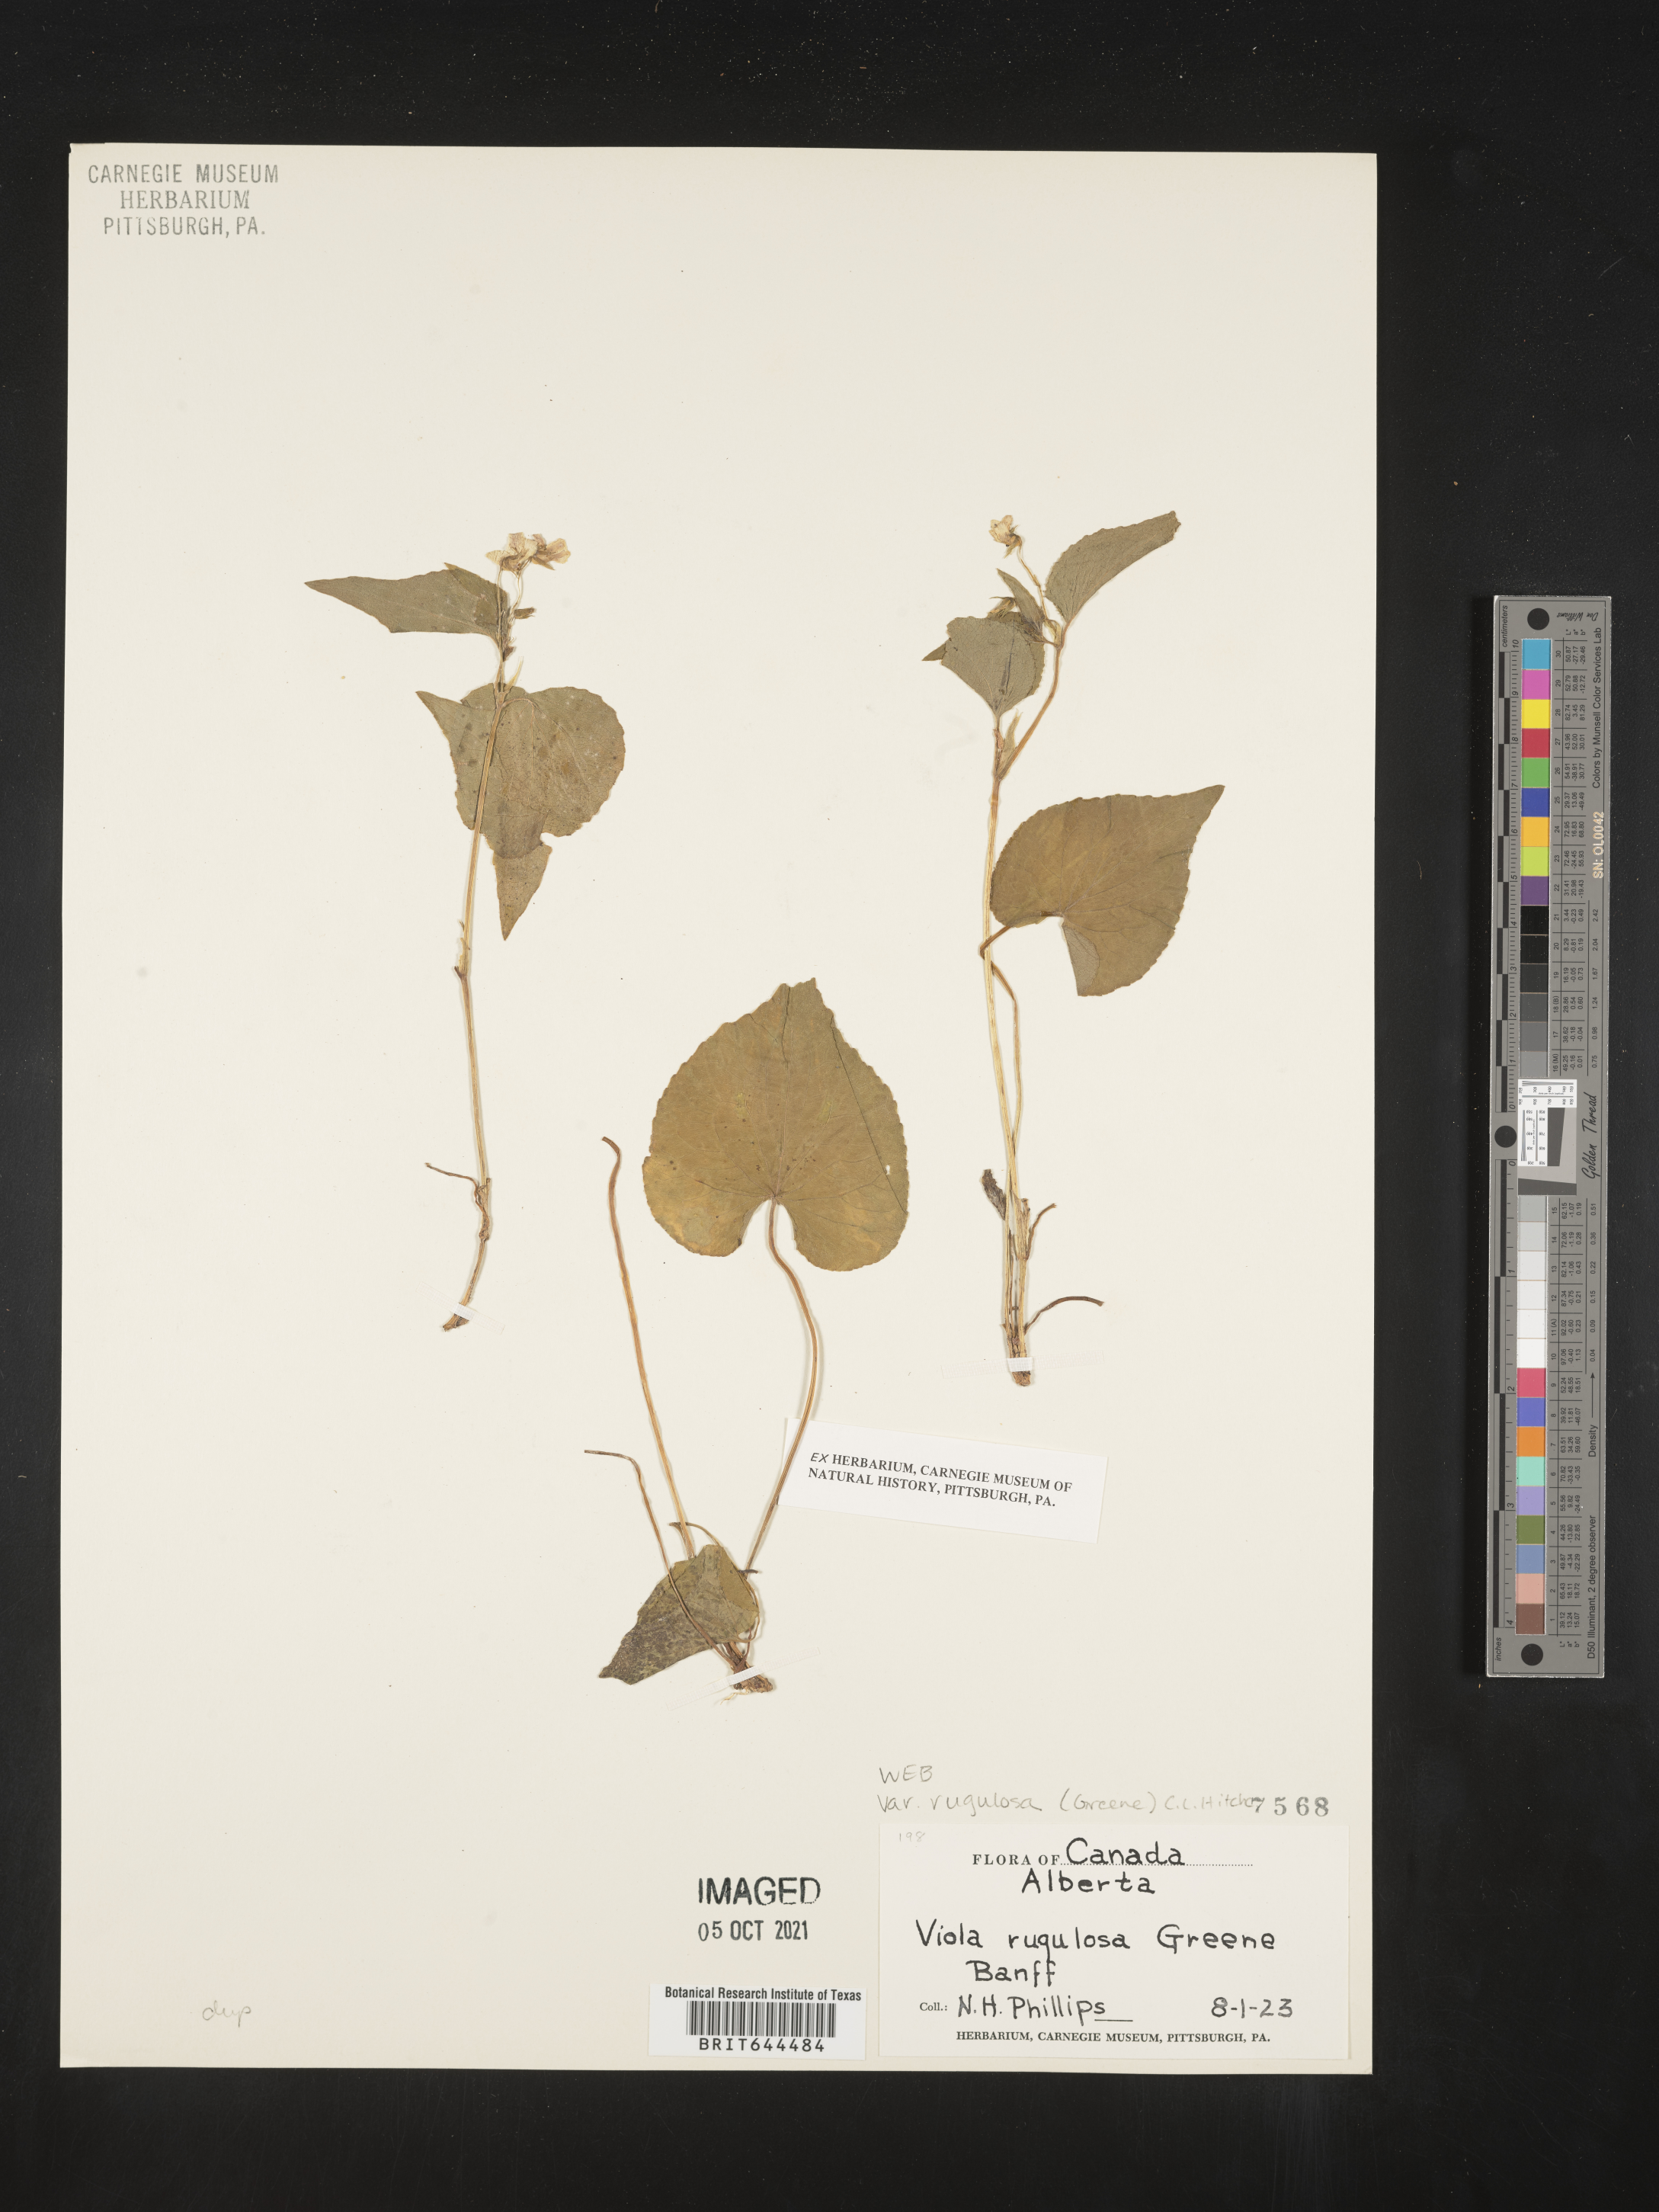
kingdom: Plantae
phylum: Tracheophyta
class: Magnoliopsida
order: Malpighiales
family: Violaceae
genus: Viola
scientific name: Viola
